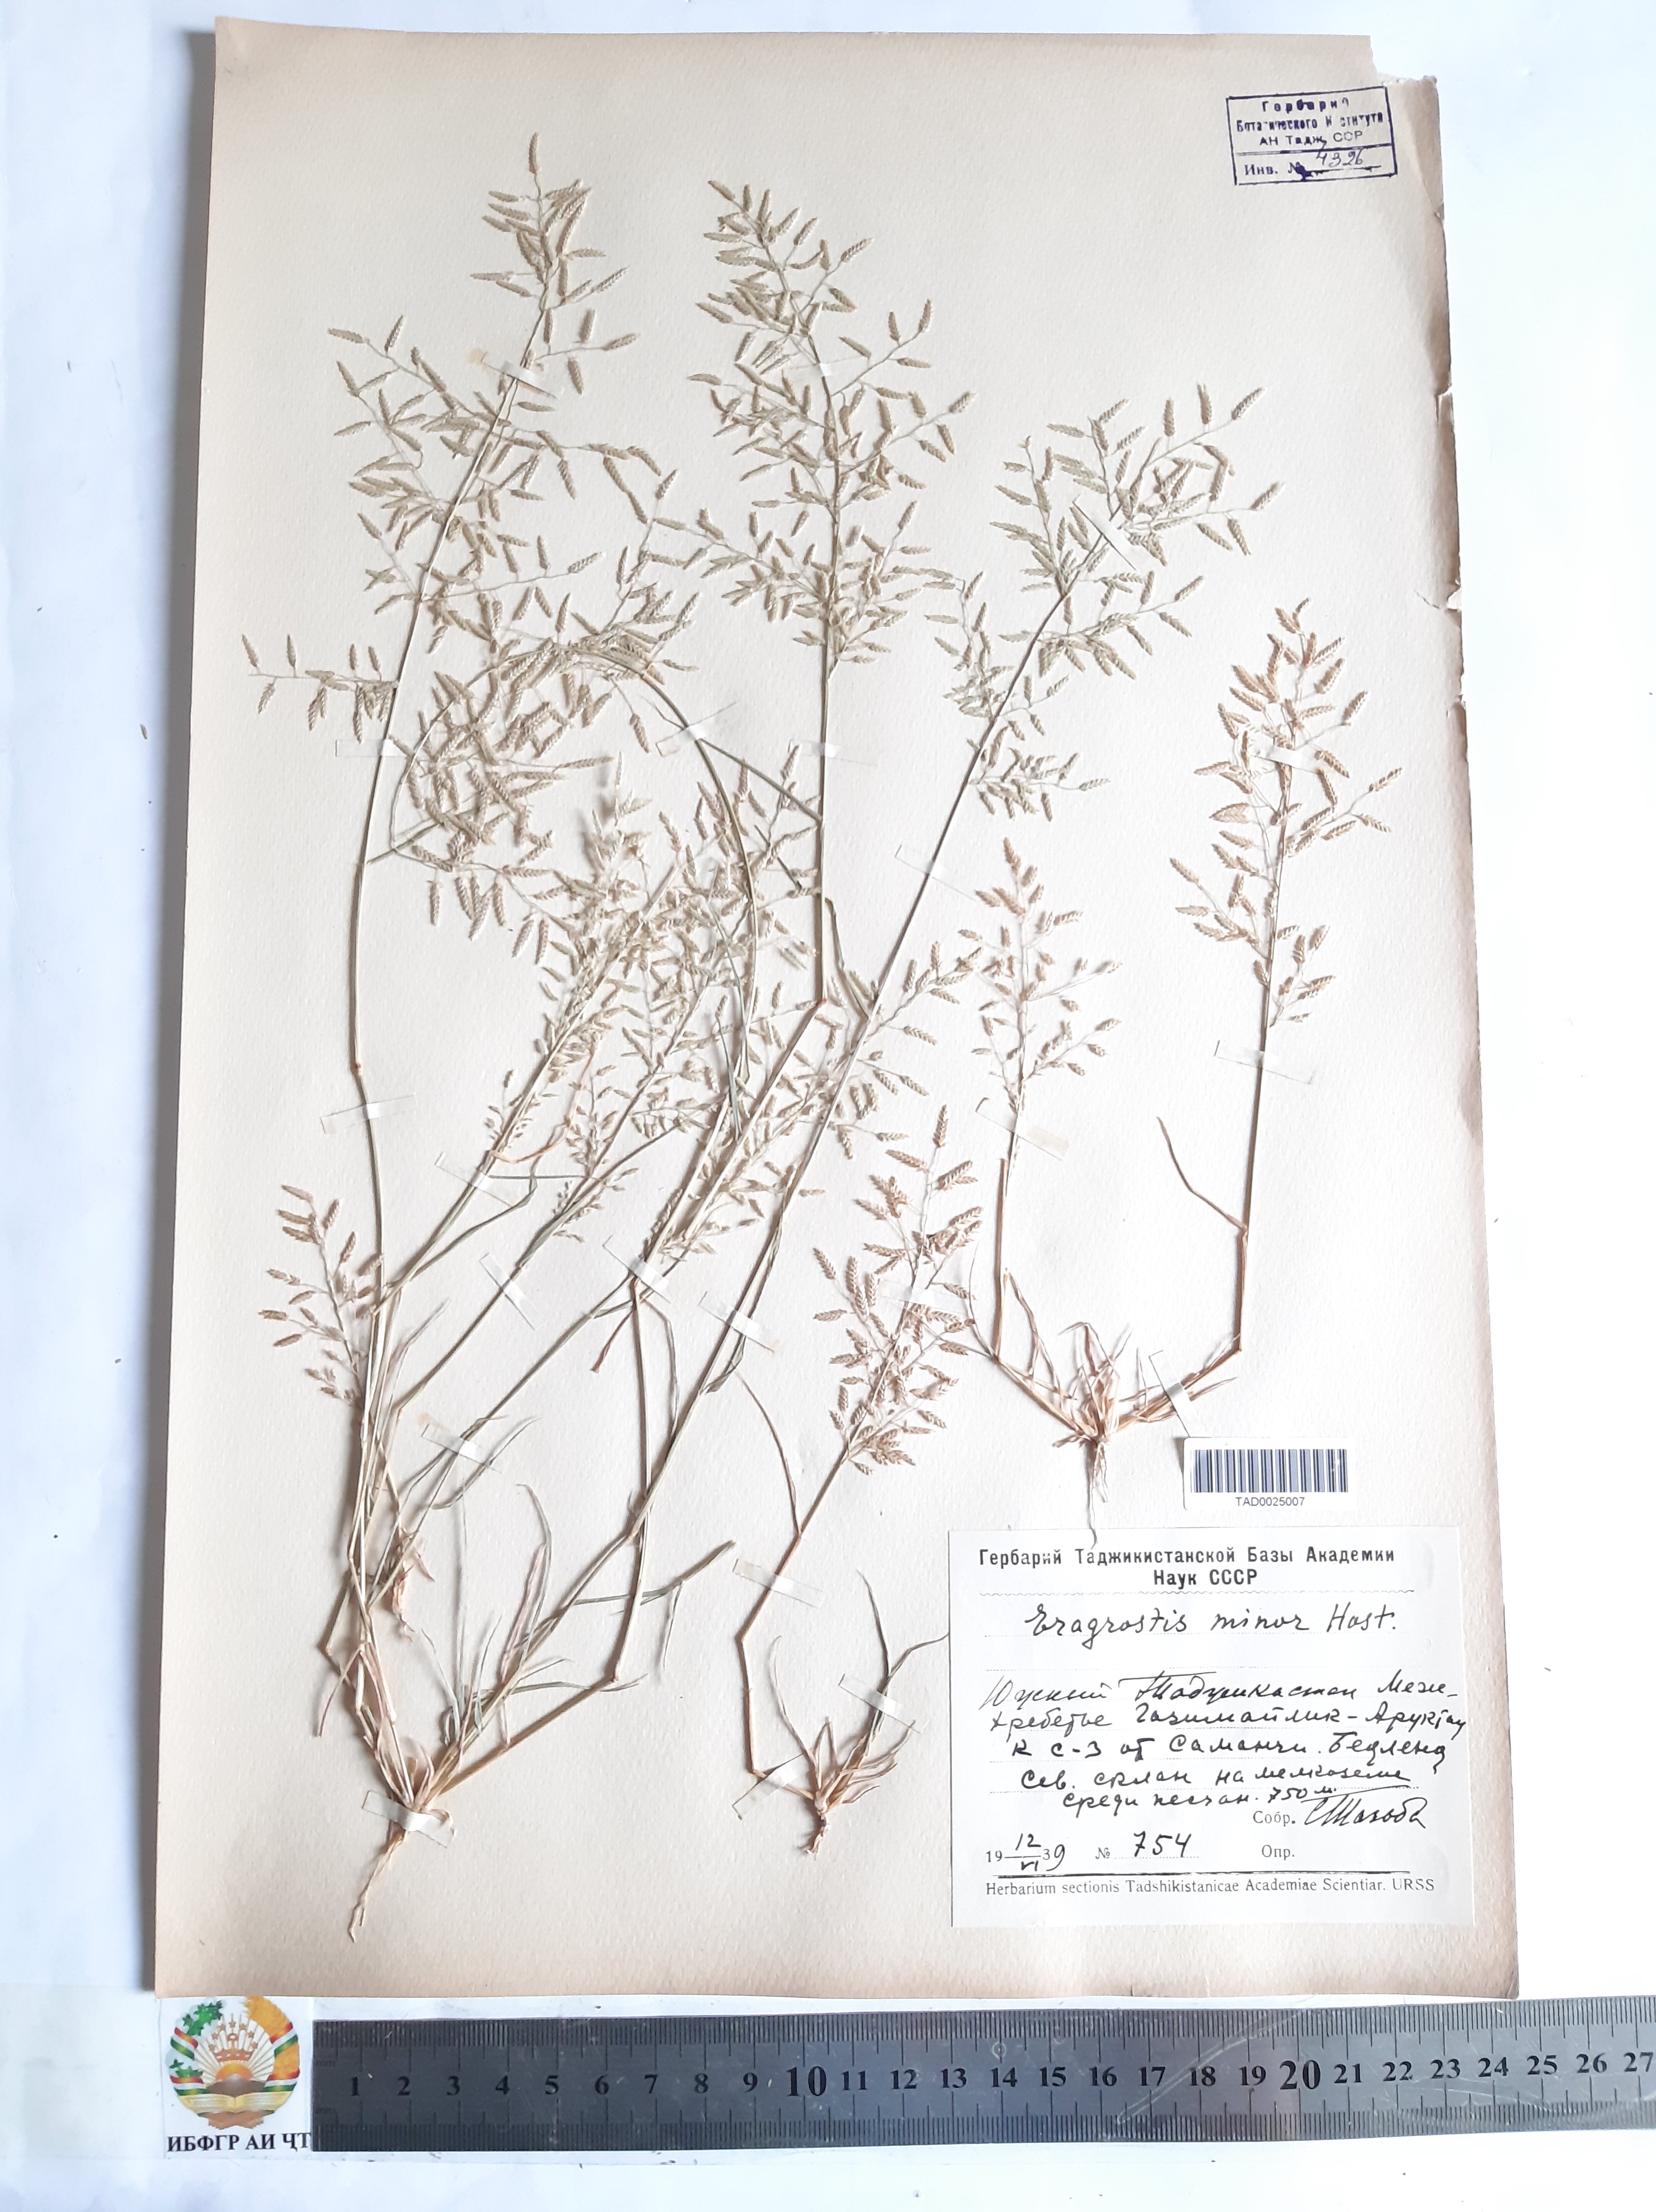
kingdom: Plantae
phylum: Tracheophyta
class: Liliopsida
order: Poales
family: Poaceae
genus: Eragrostis
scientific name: Eragrostis minor
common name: Small love-grass
